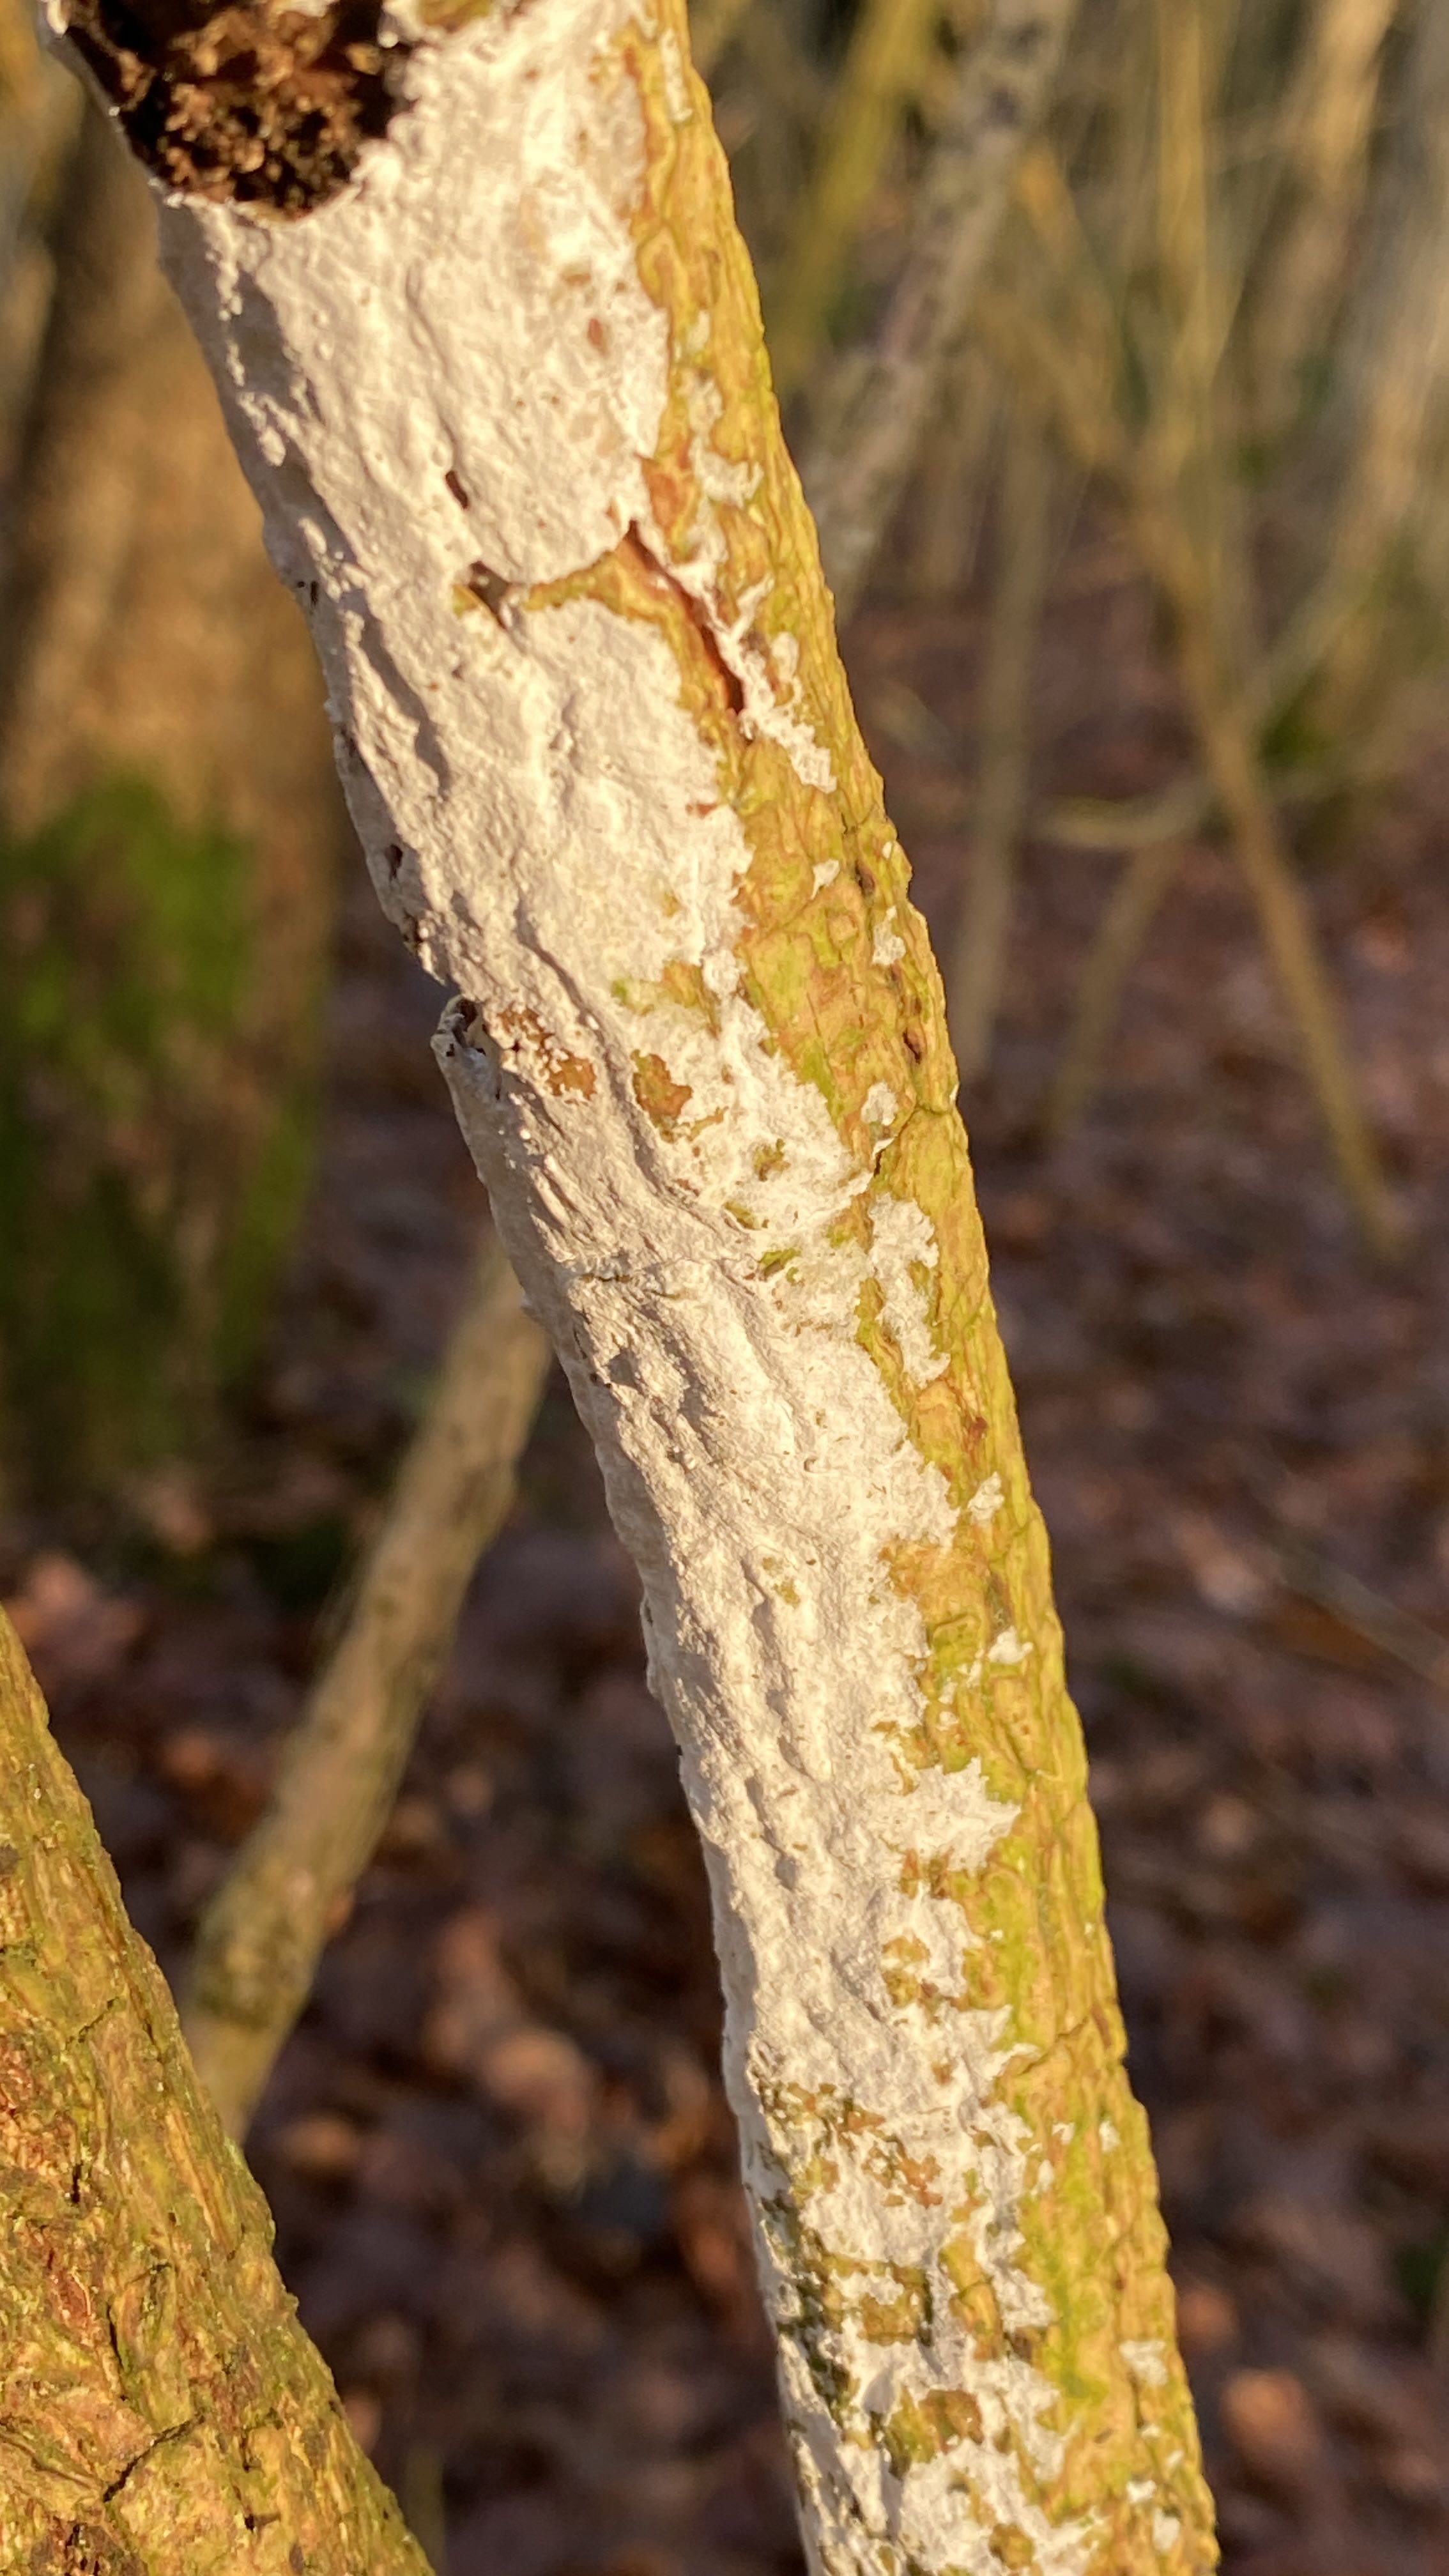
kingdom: Fungi
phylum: Basidiomycota
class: Agaricomycetes
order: Corticiales
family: Corticiaceae
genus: Lyomyces
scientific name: Lyomyces sambuci
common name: almindelig hyldehinde
